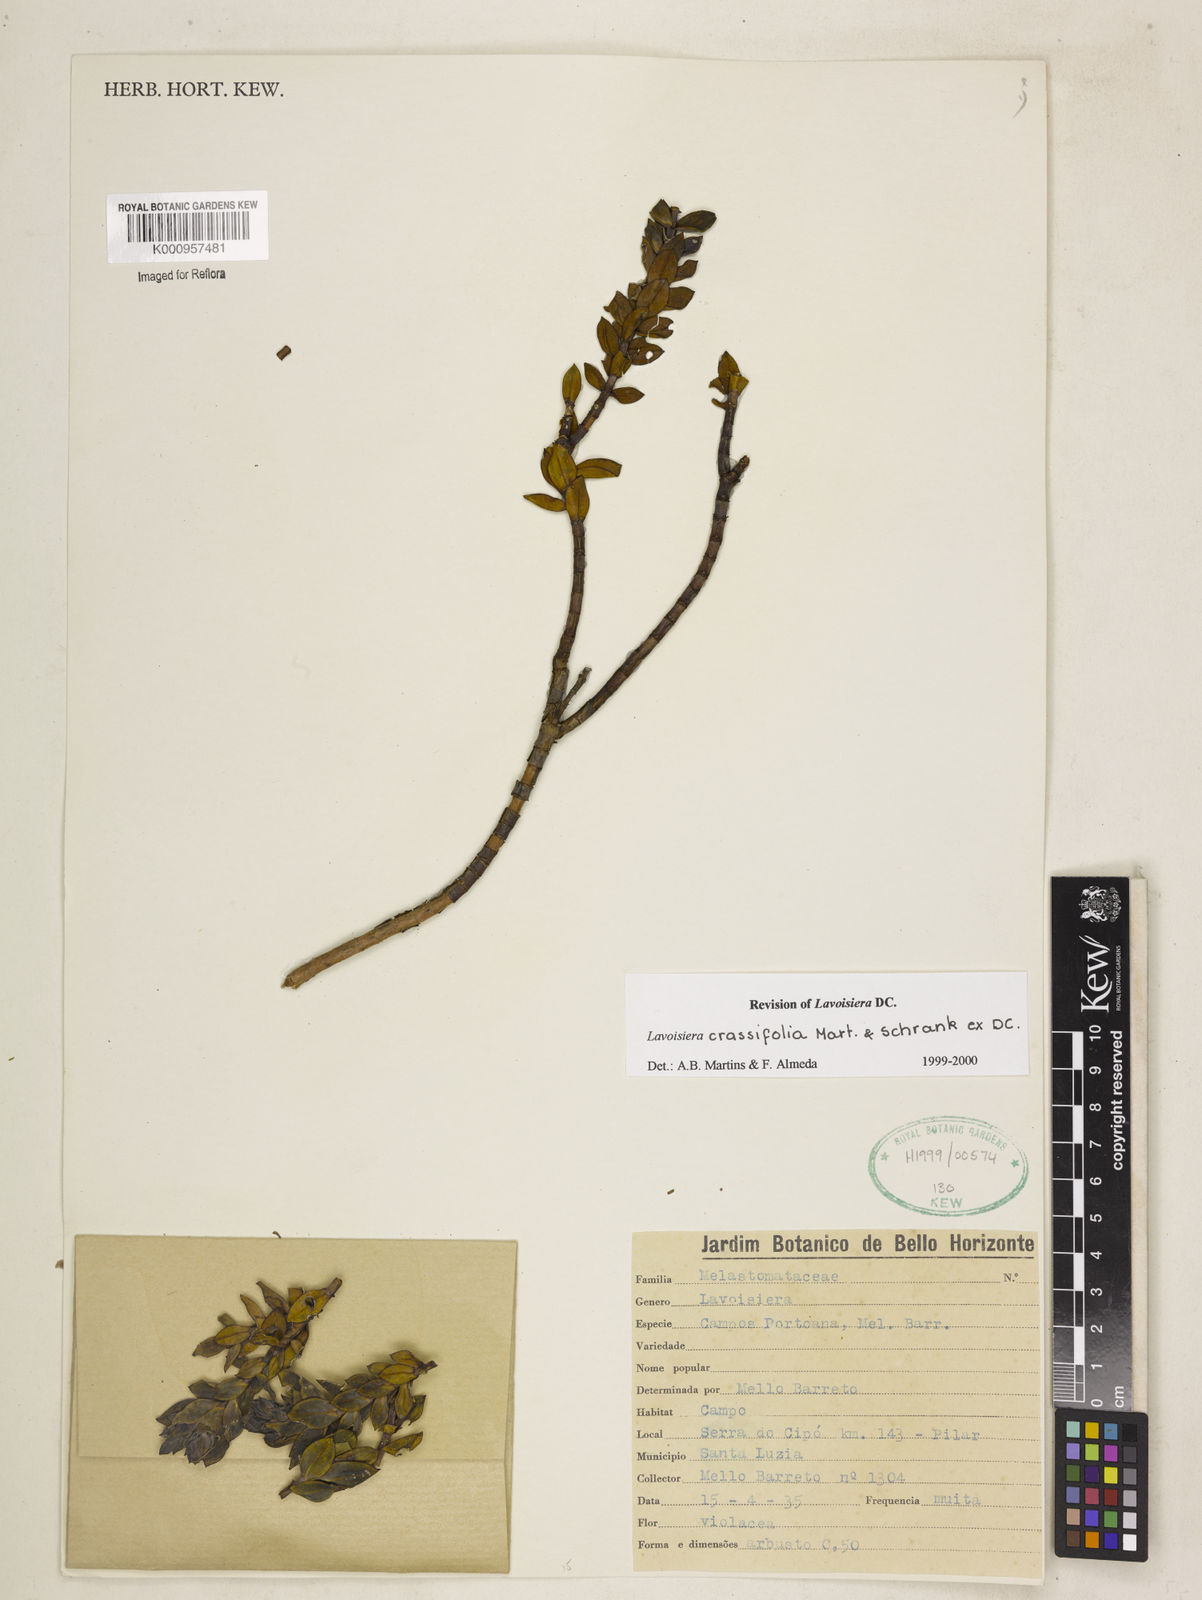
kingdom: Plantae
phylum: Tracheophyta
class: Magnoliopsida
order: Myrtales
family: Melastomataceae
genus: Microlicia
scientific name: Microlicia crassifolia
